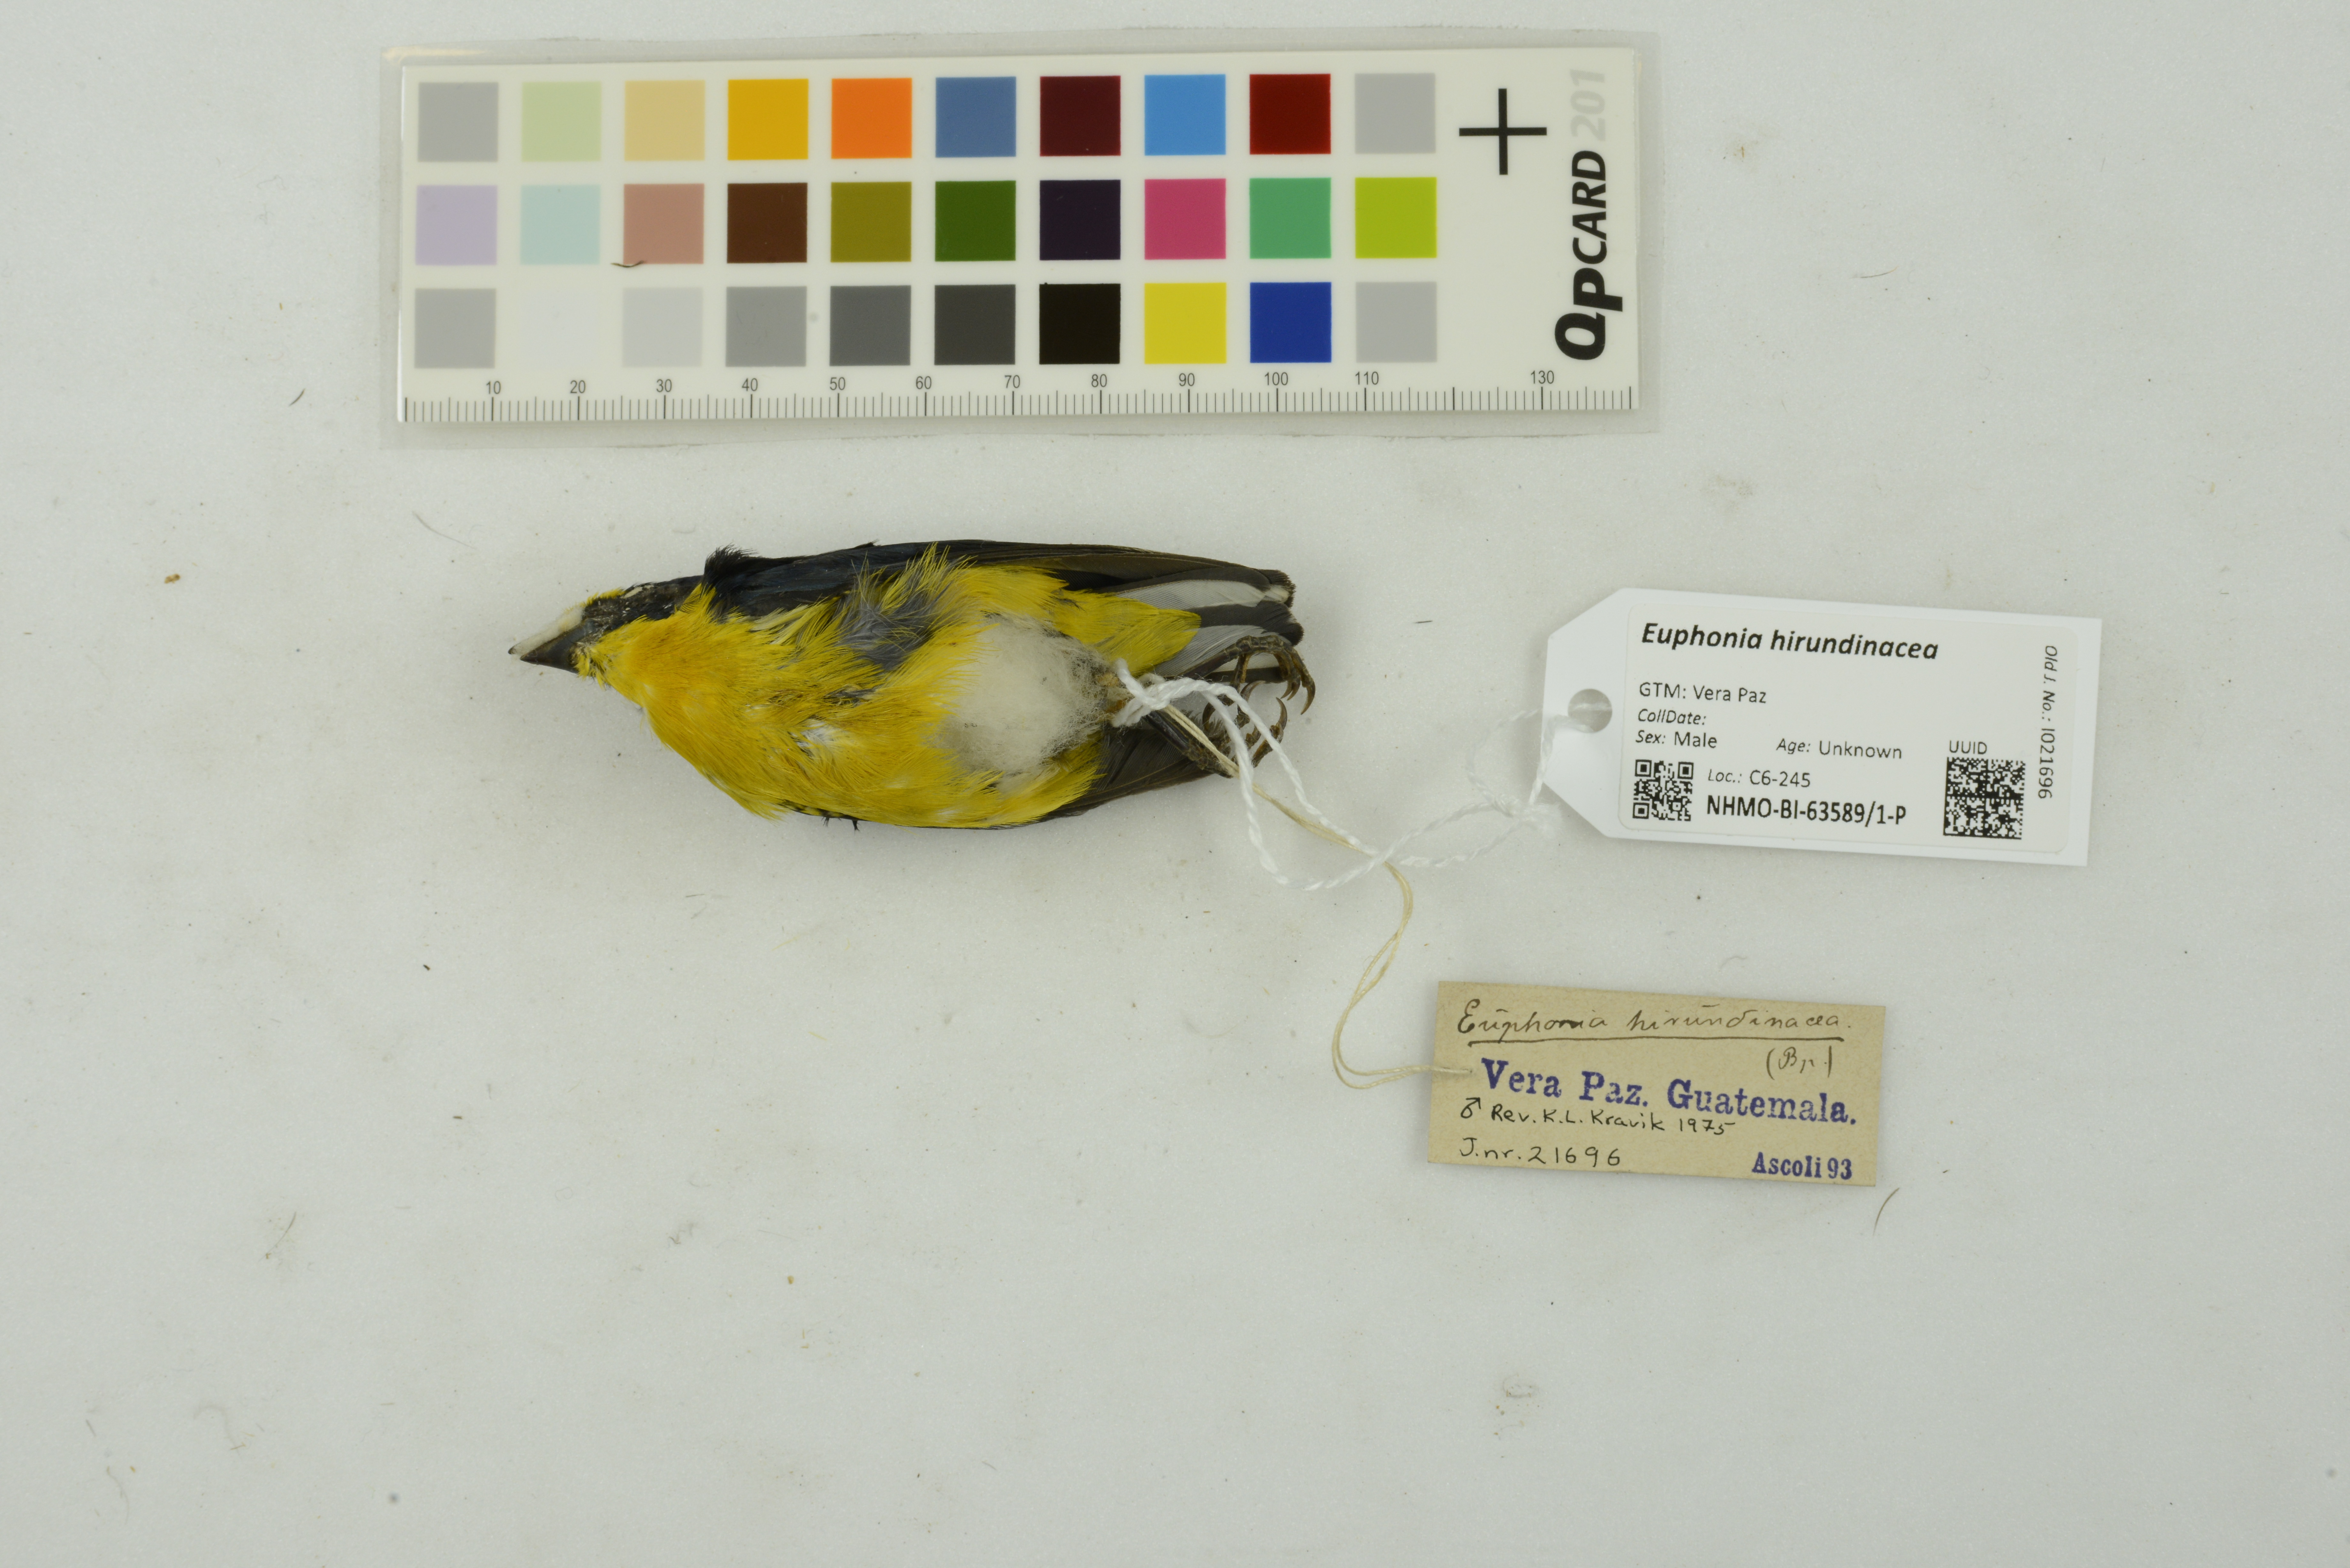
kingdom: Animalia
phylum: Chordata
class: Aves
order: Passeriformes
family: Fringillidae
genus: Euphonia
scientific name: Euphonia hirundinacea
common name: Yellow-throated euphonia
